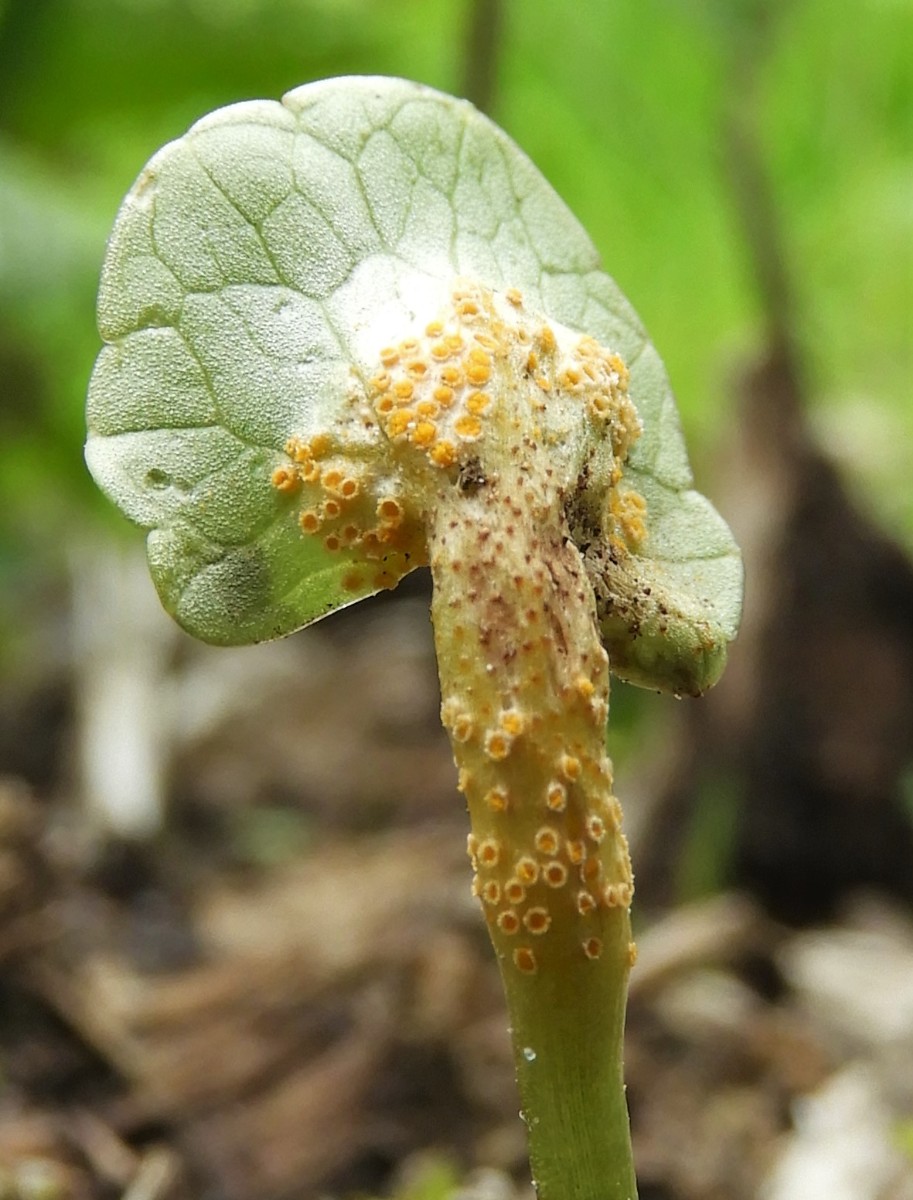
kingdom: Fungi
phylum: Basidiomycota
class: Pucciniomycetes
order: Pucciniales
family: Pucciniaceae
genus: Uromyces
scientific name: Uromyces dactylidis
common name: ranunkel-encellerust
